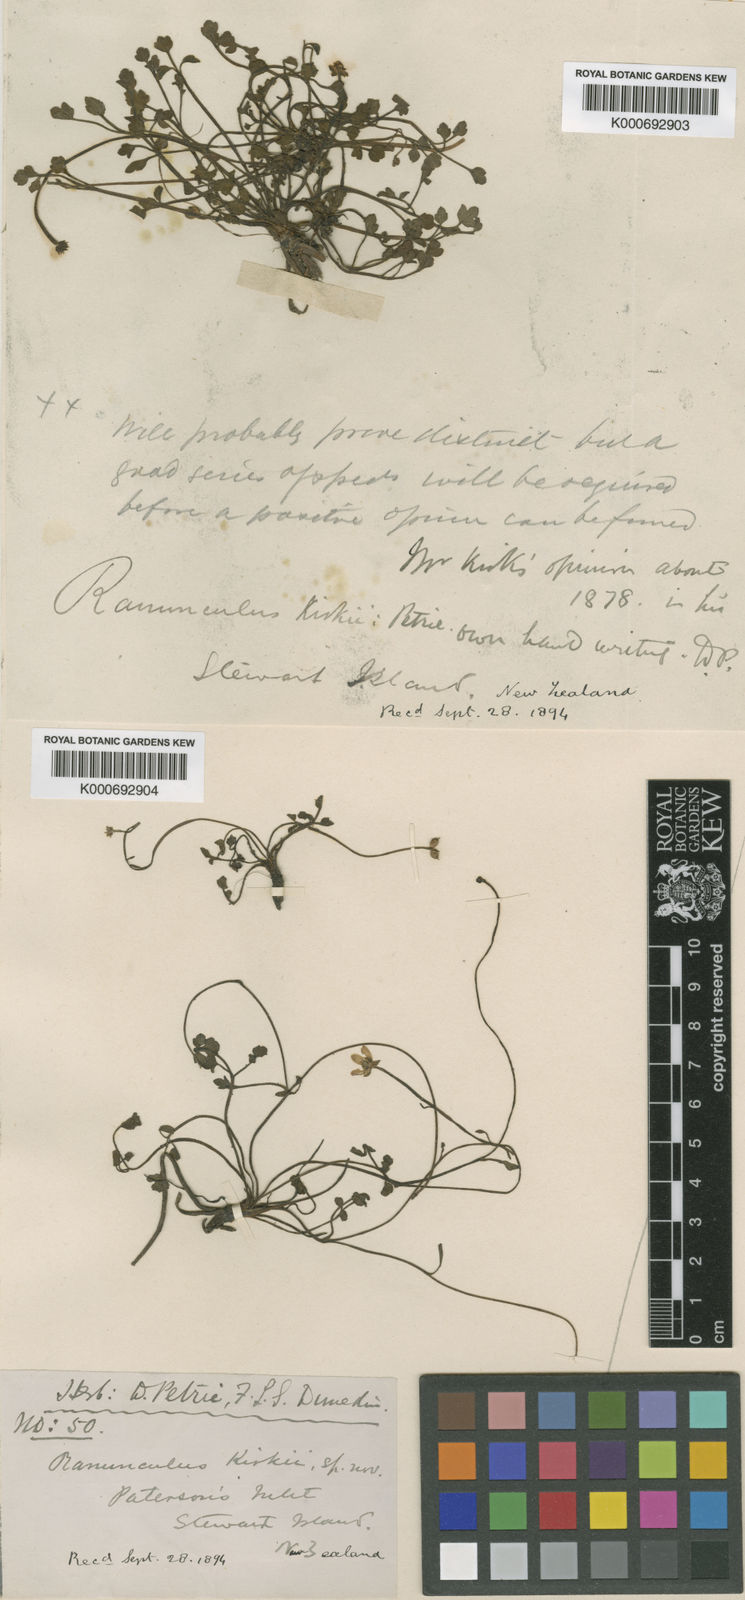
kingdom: Plantae
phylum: Tracheophyta
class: Magnoliopsida
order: Ranunculales
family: Ranunculaceae
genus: Ranunculus
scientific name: Ranunculus kirkii
